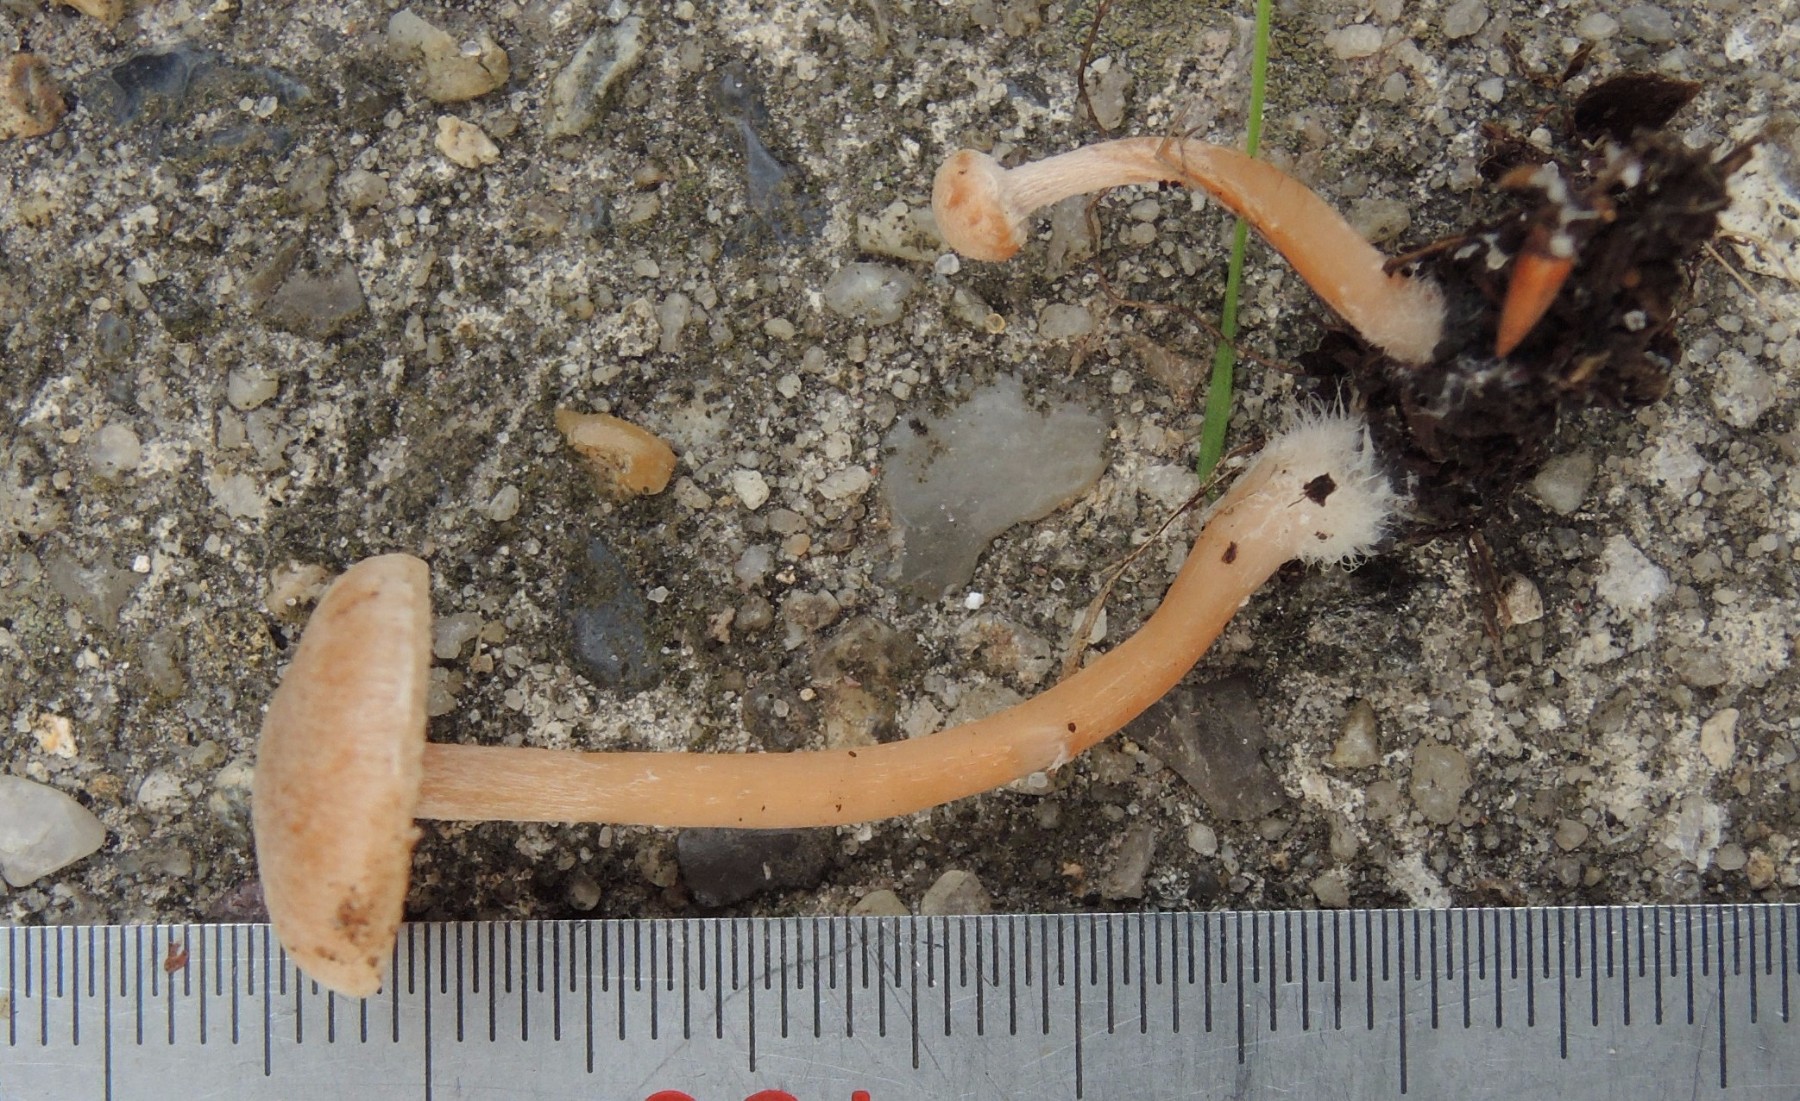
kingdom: Fungi
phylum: Basidiomycota
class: Agaricomycetes
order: Agaricales
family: Tubariaceae
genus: Tubaria
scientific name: Tubaria conspersa
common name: bleg fnughat
